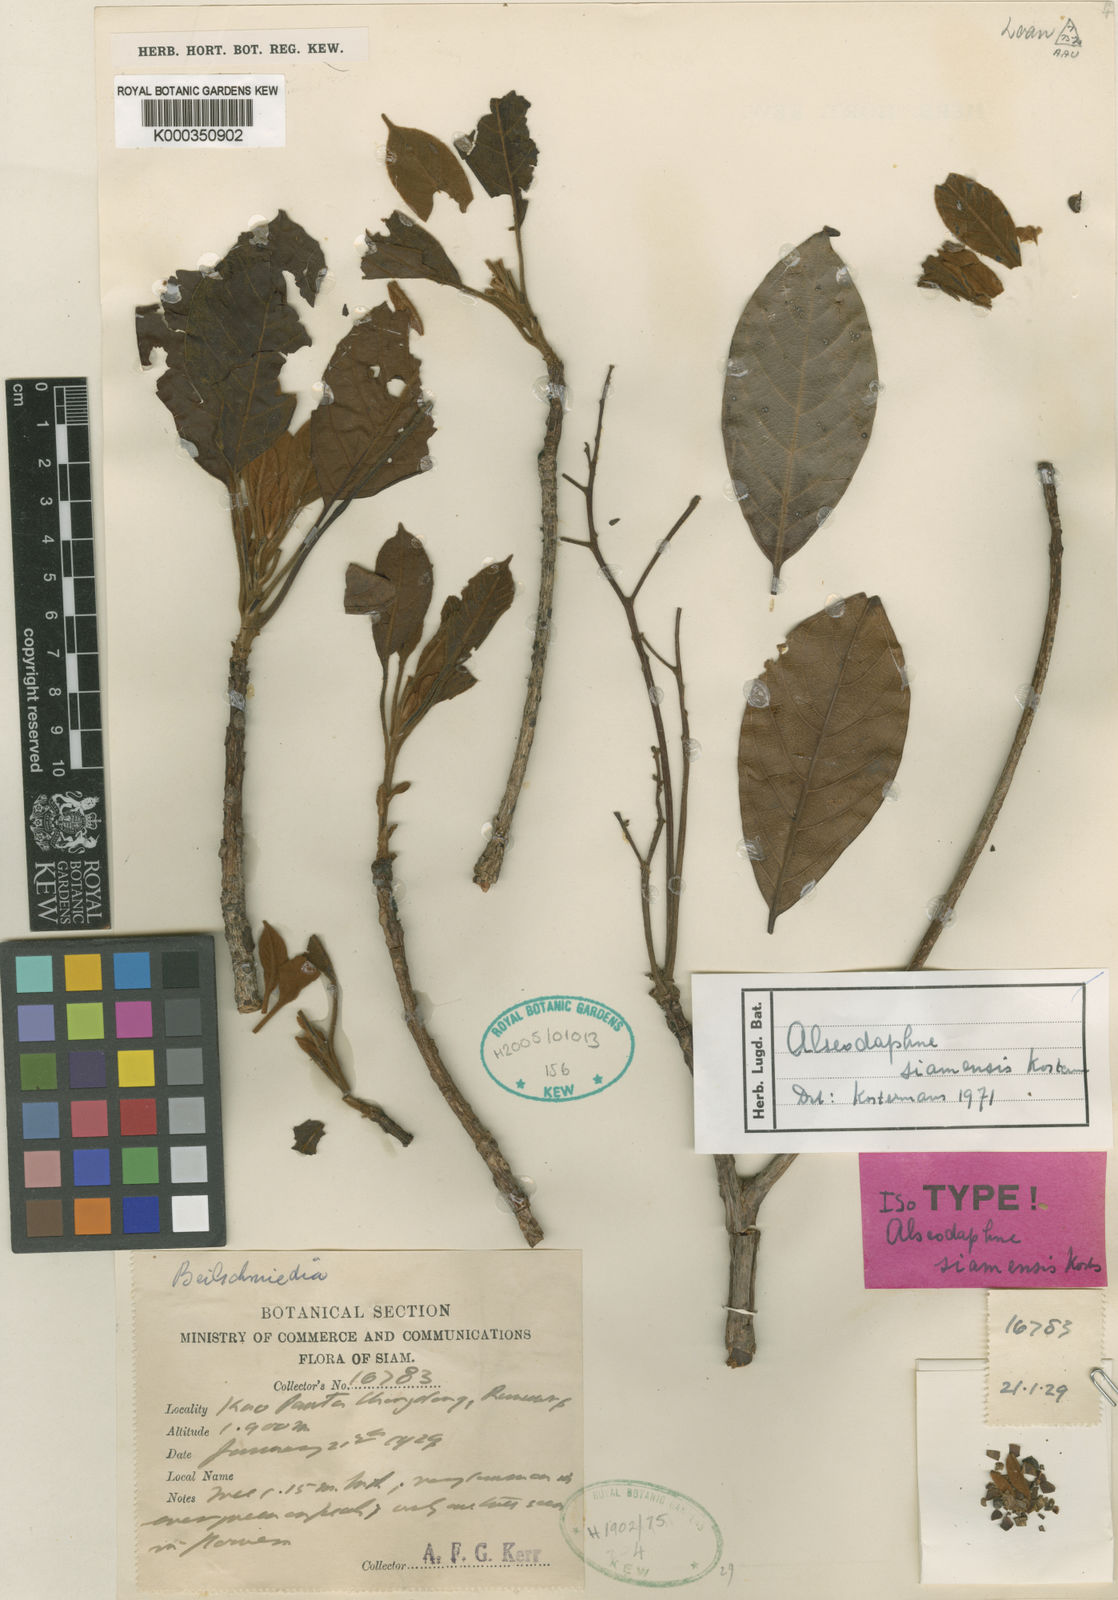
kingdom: Plantae
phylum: Tracheophyta
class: Magnoliopsida
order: Laurales
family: Lauraceae
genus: Alseodaphne
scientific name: Alseodaphne siamensis
